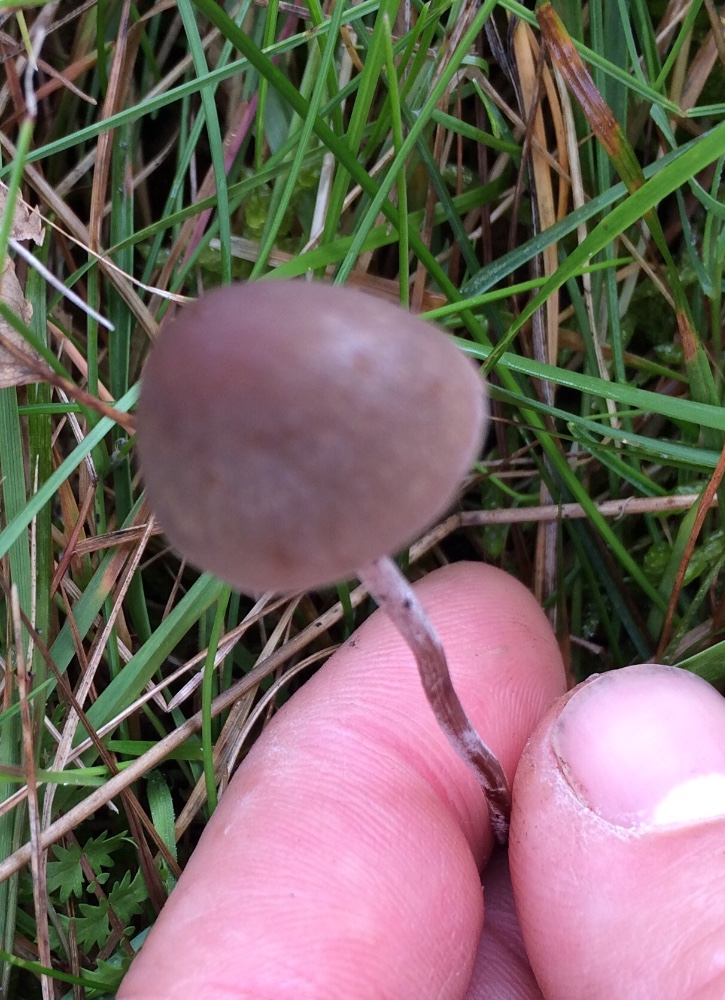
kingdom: Fungi
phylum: Basidiomycota
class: Agaricomycetes
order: Agaricales
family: Bolbitiaceae
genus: Panaeolus
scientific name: Panaeolus acuminatus
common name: høj glanshat
